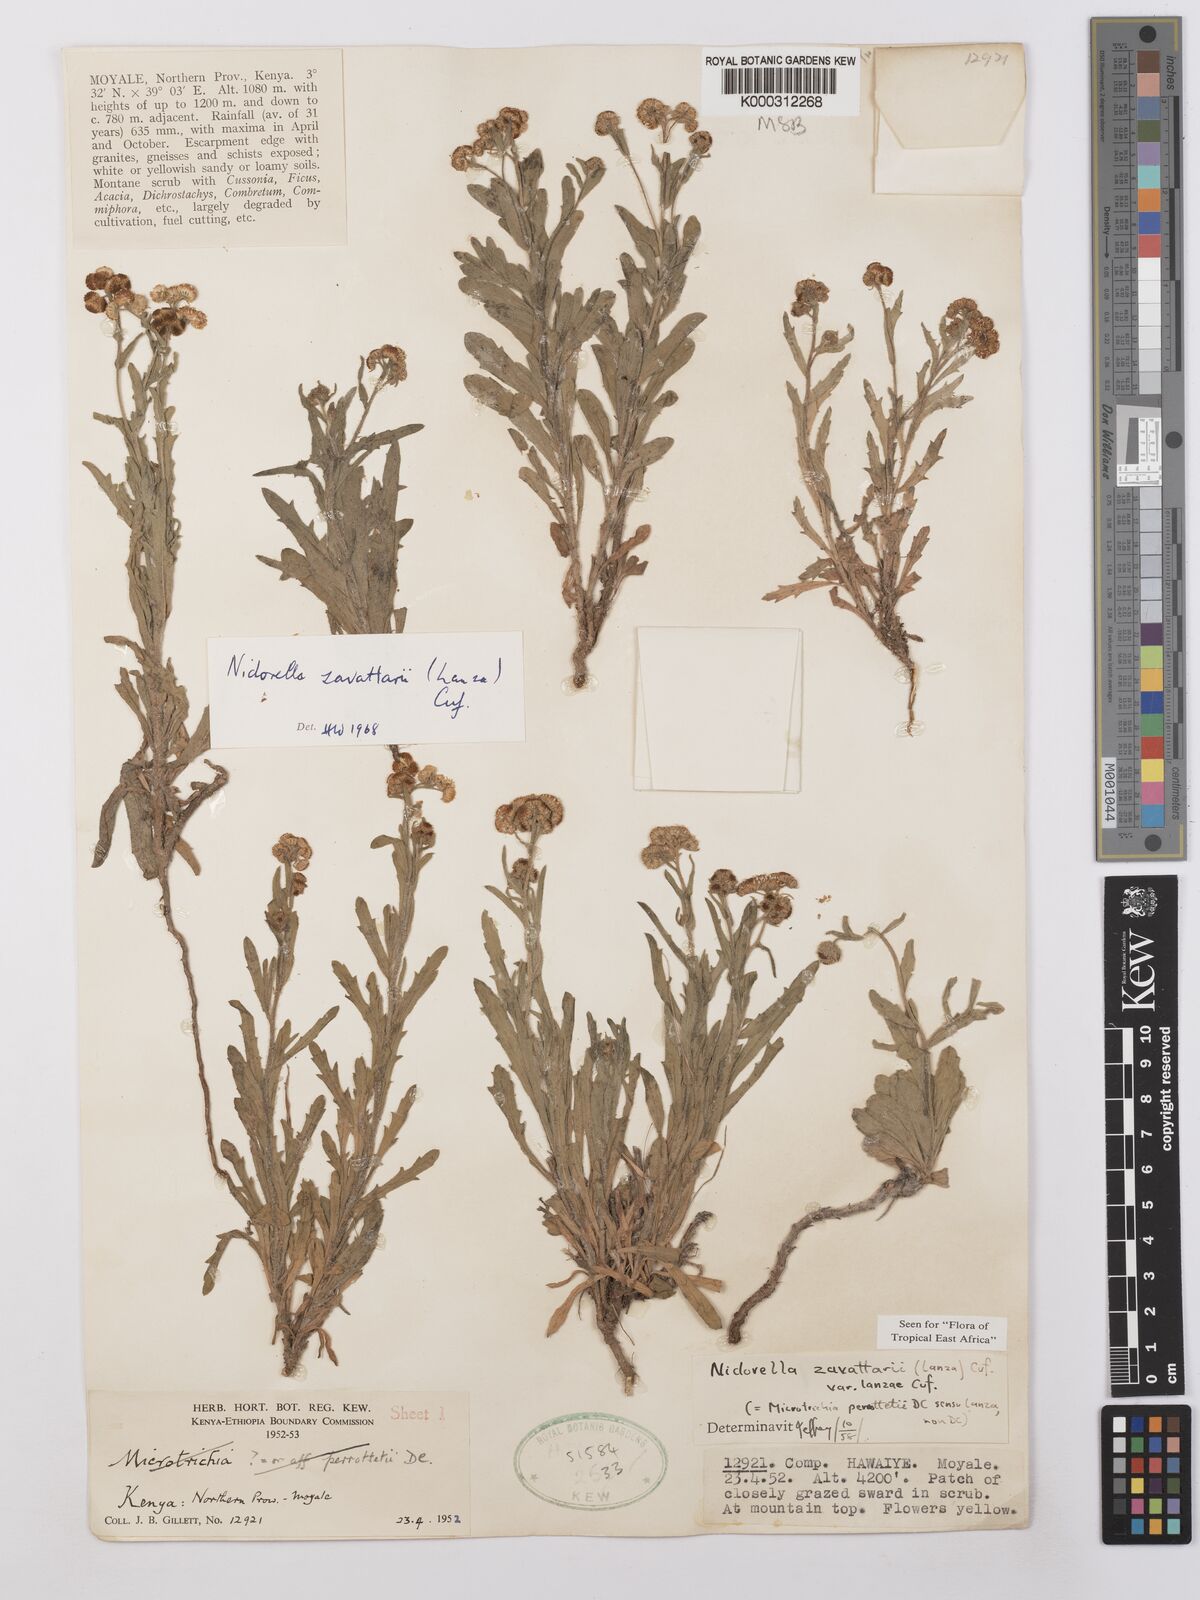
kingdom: Plantae
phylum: Tracheophyta
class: Magnoliopsida
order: Asterales
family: Asteraceae
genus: Nidorella
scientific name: Nidorella zavattarii
